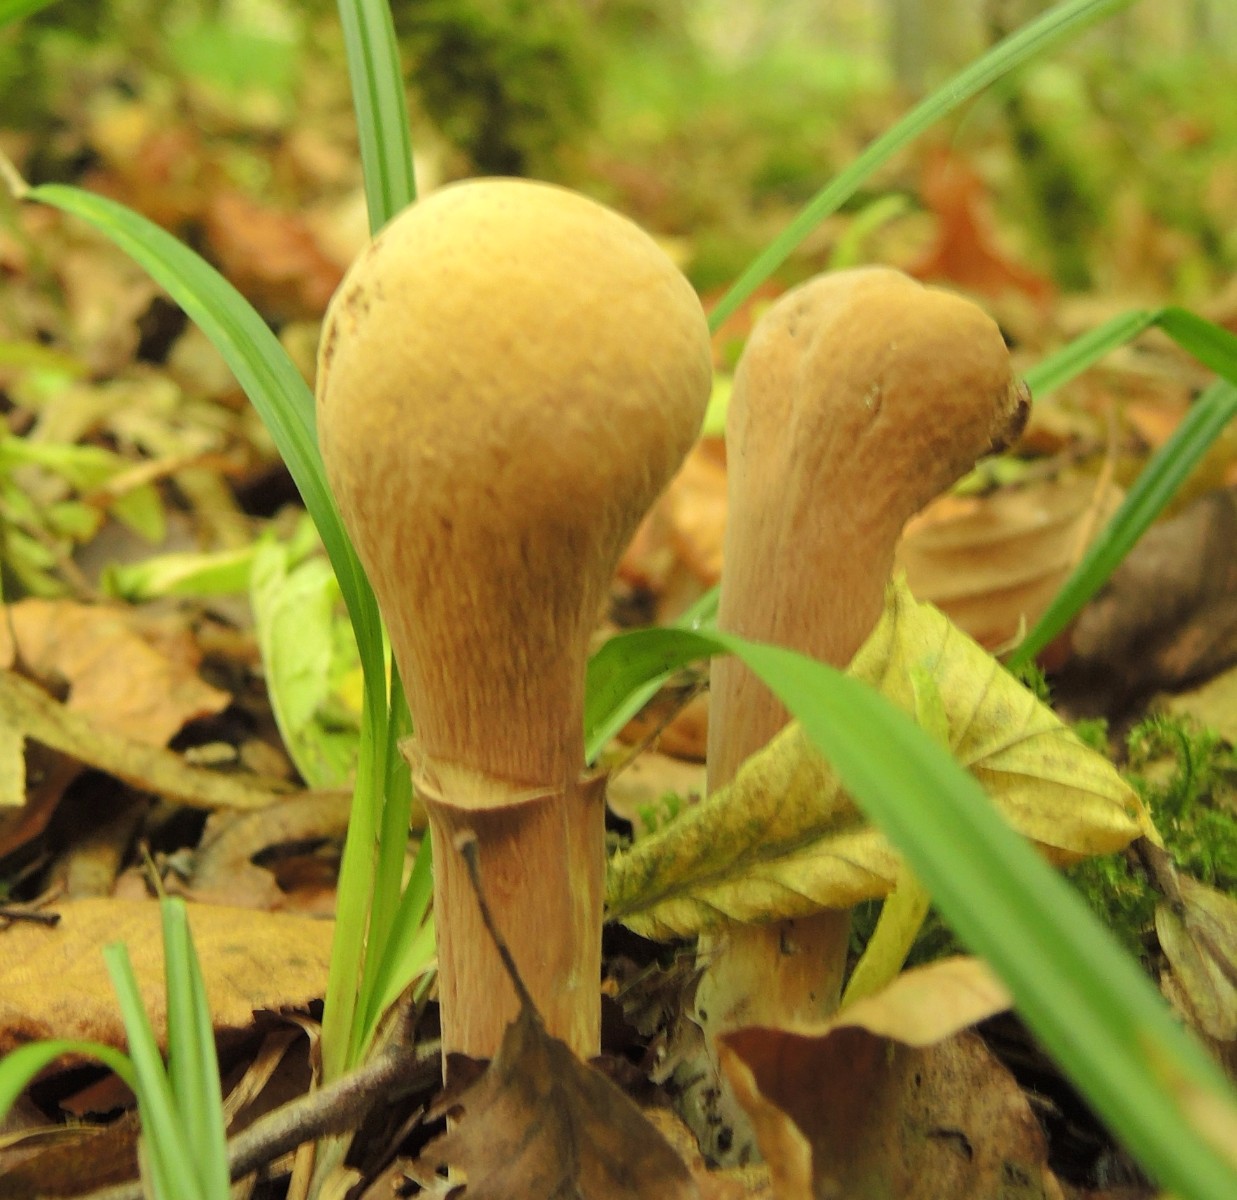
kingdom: Fungi
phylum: Basidiomycota
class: Agaricomycetes
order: Gomphales
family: Clavariadelphaceae
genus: Clavariadelphus
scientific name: Clavariadelphus pistillaris
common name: herkules-kæmpekølle
